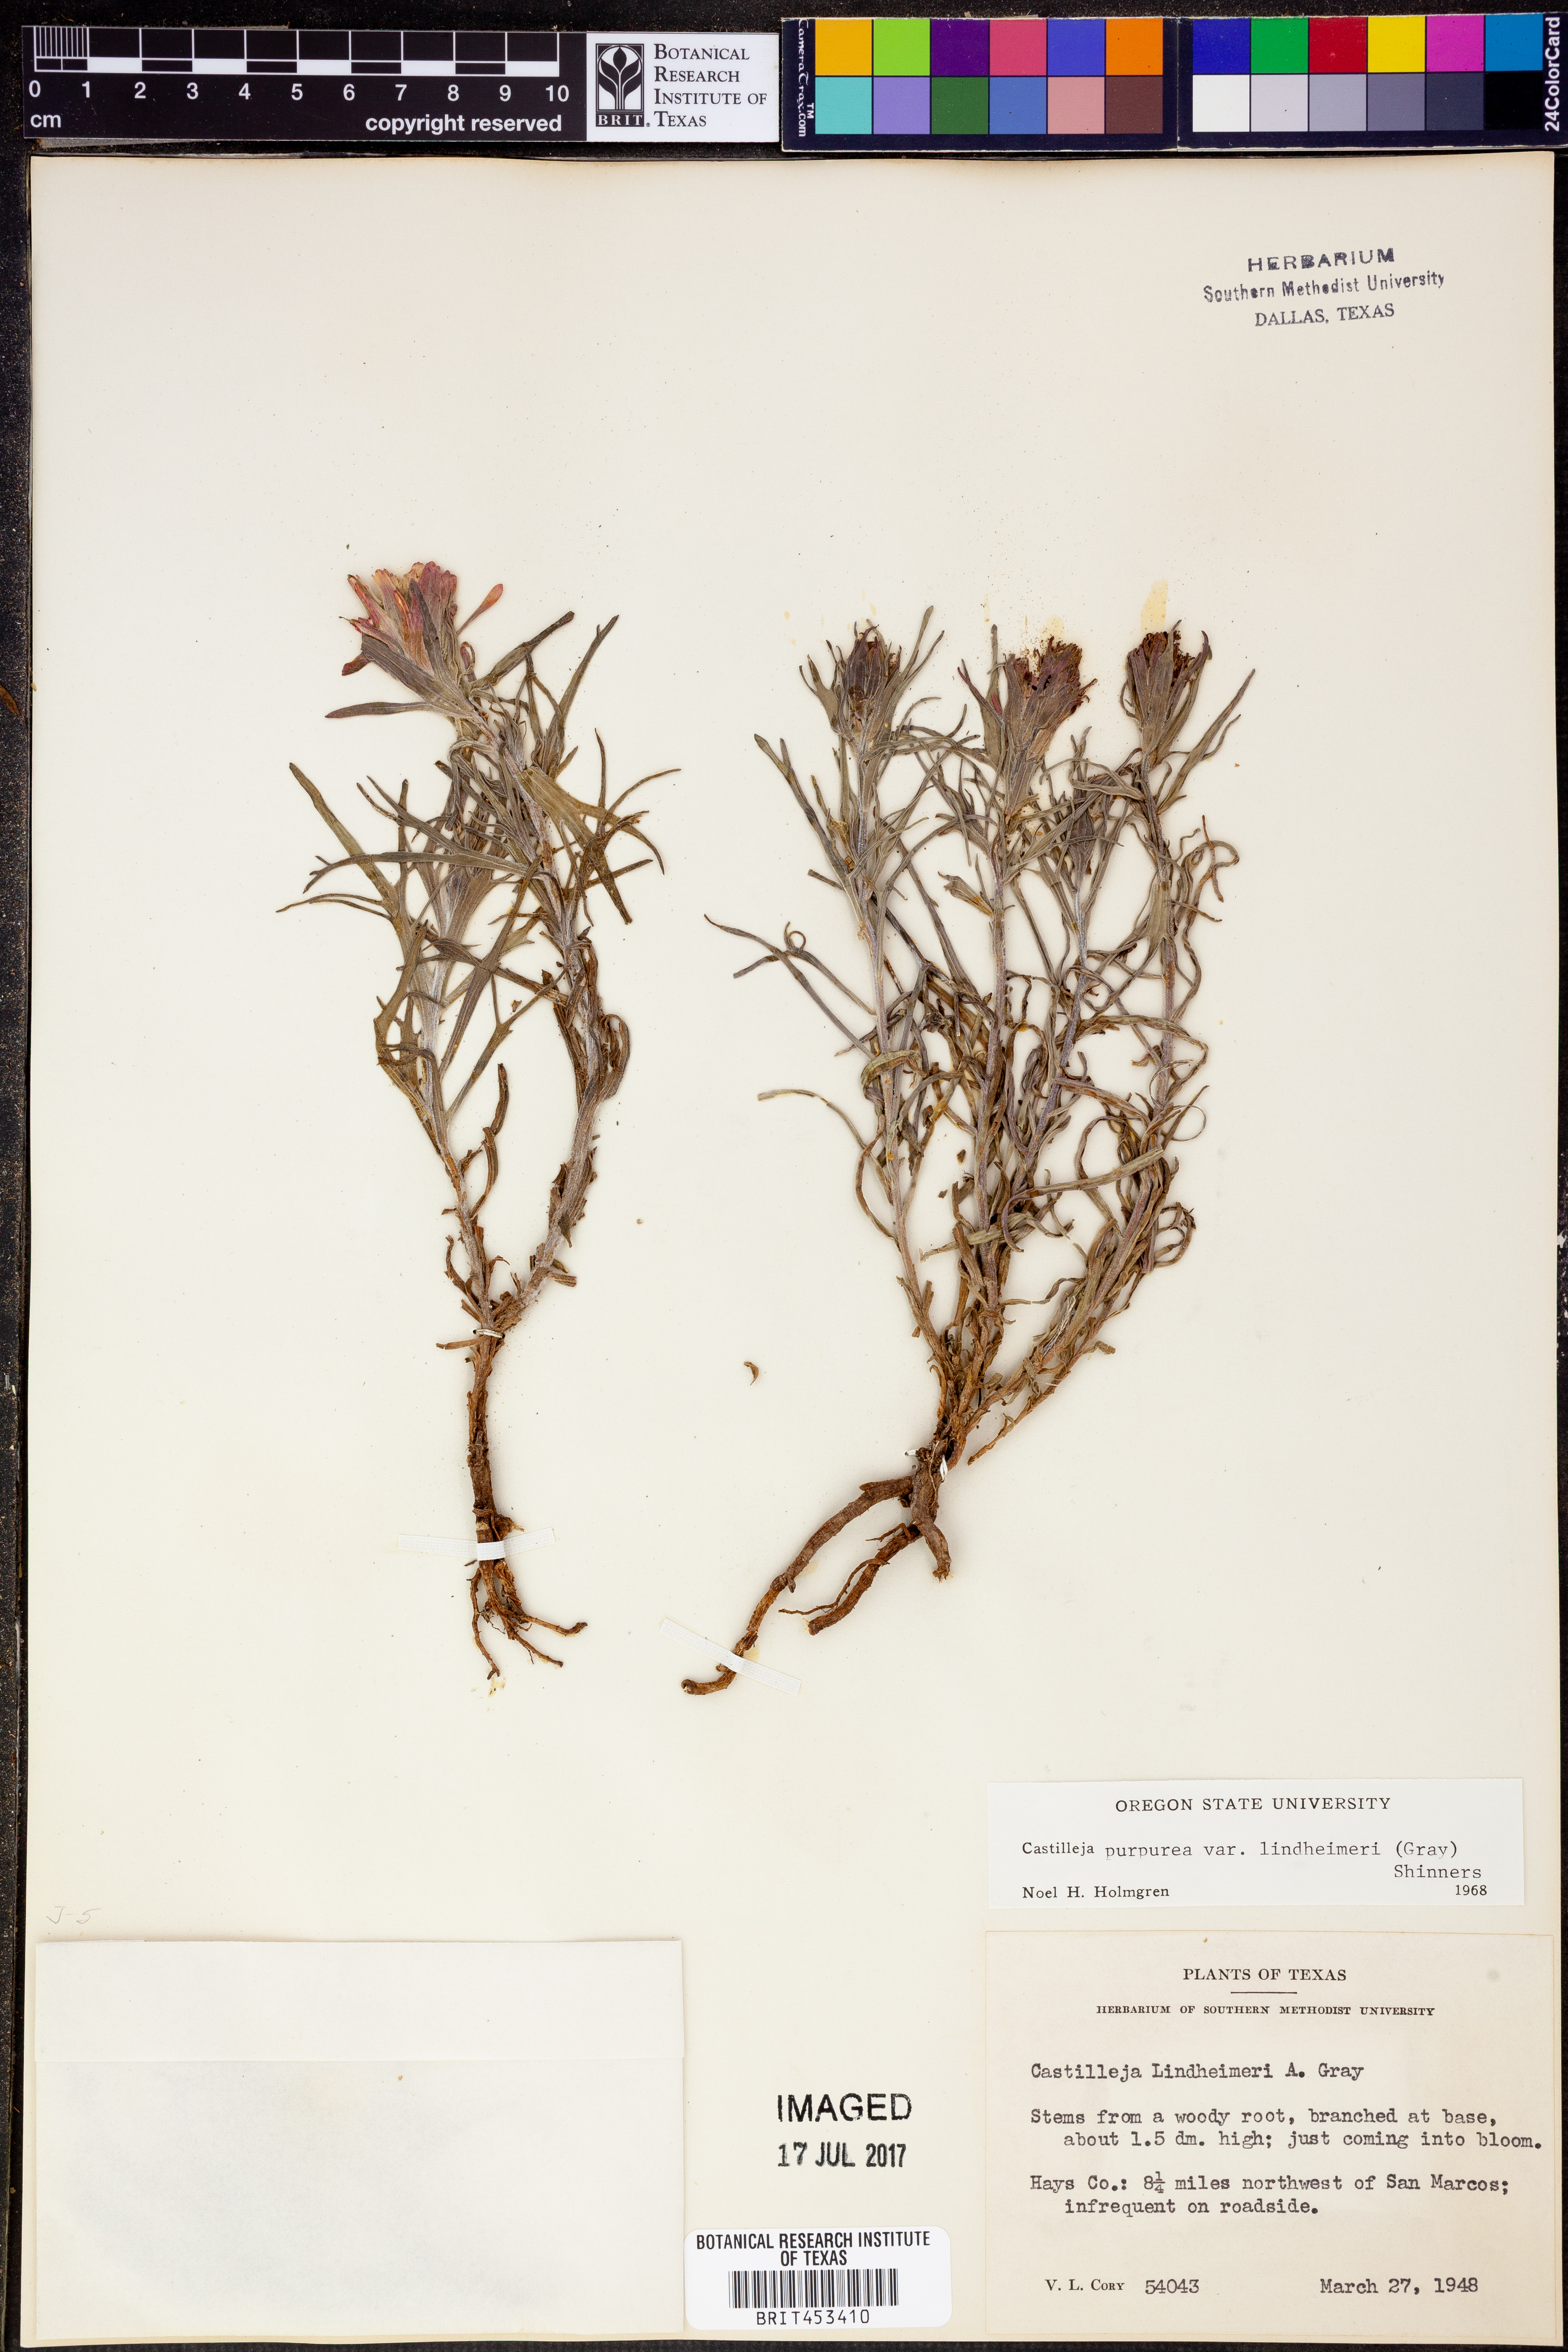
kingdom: Plantae
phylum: Tracheophyta
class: Magnoliopsida
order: Lamiales
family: Orobanchaceae
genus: Castilleja
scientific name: Castilleja lindheimeri
